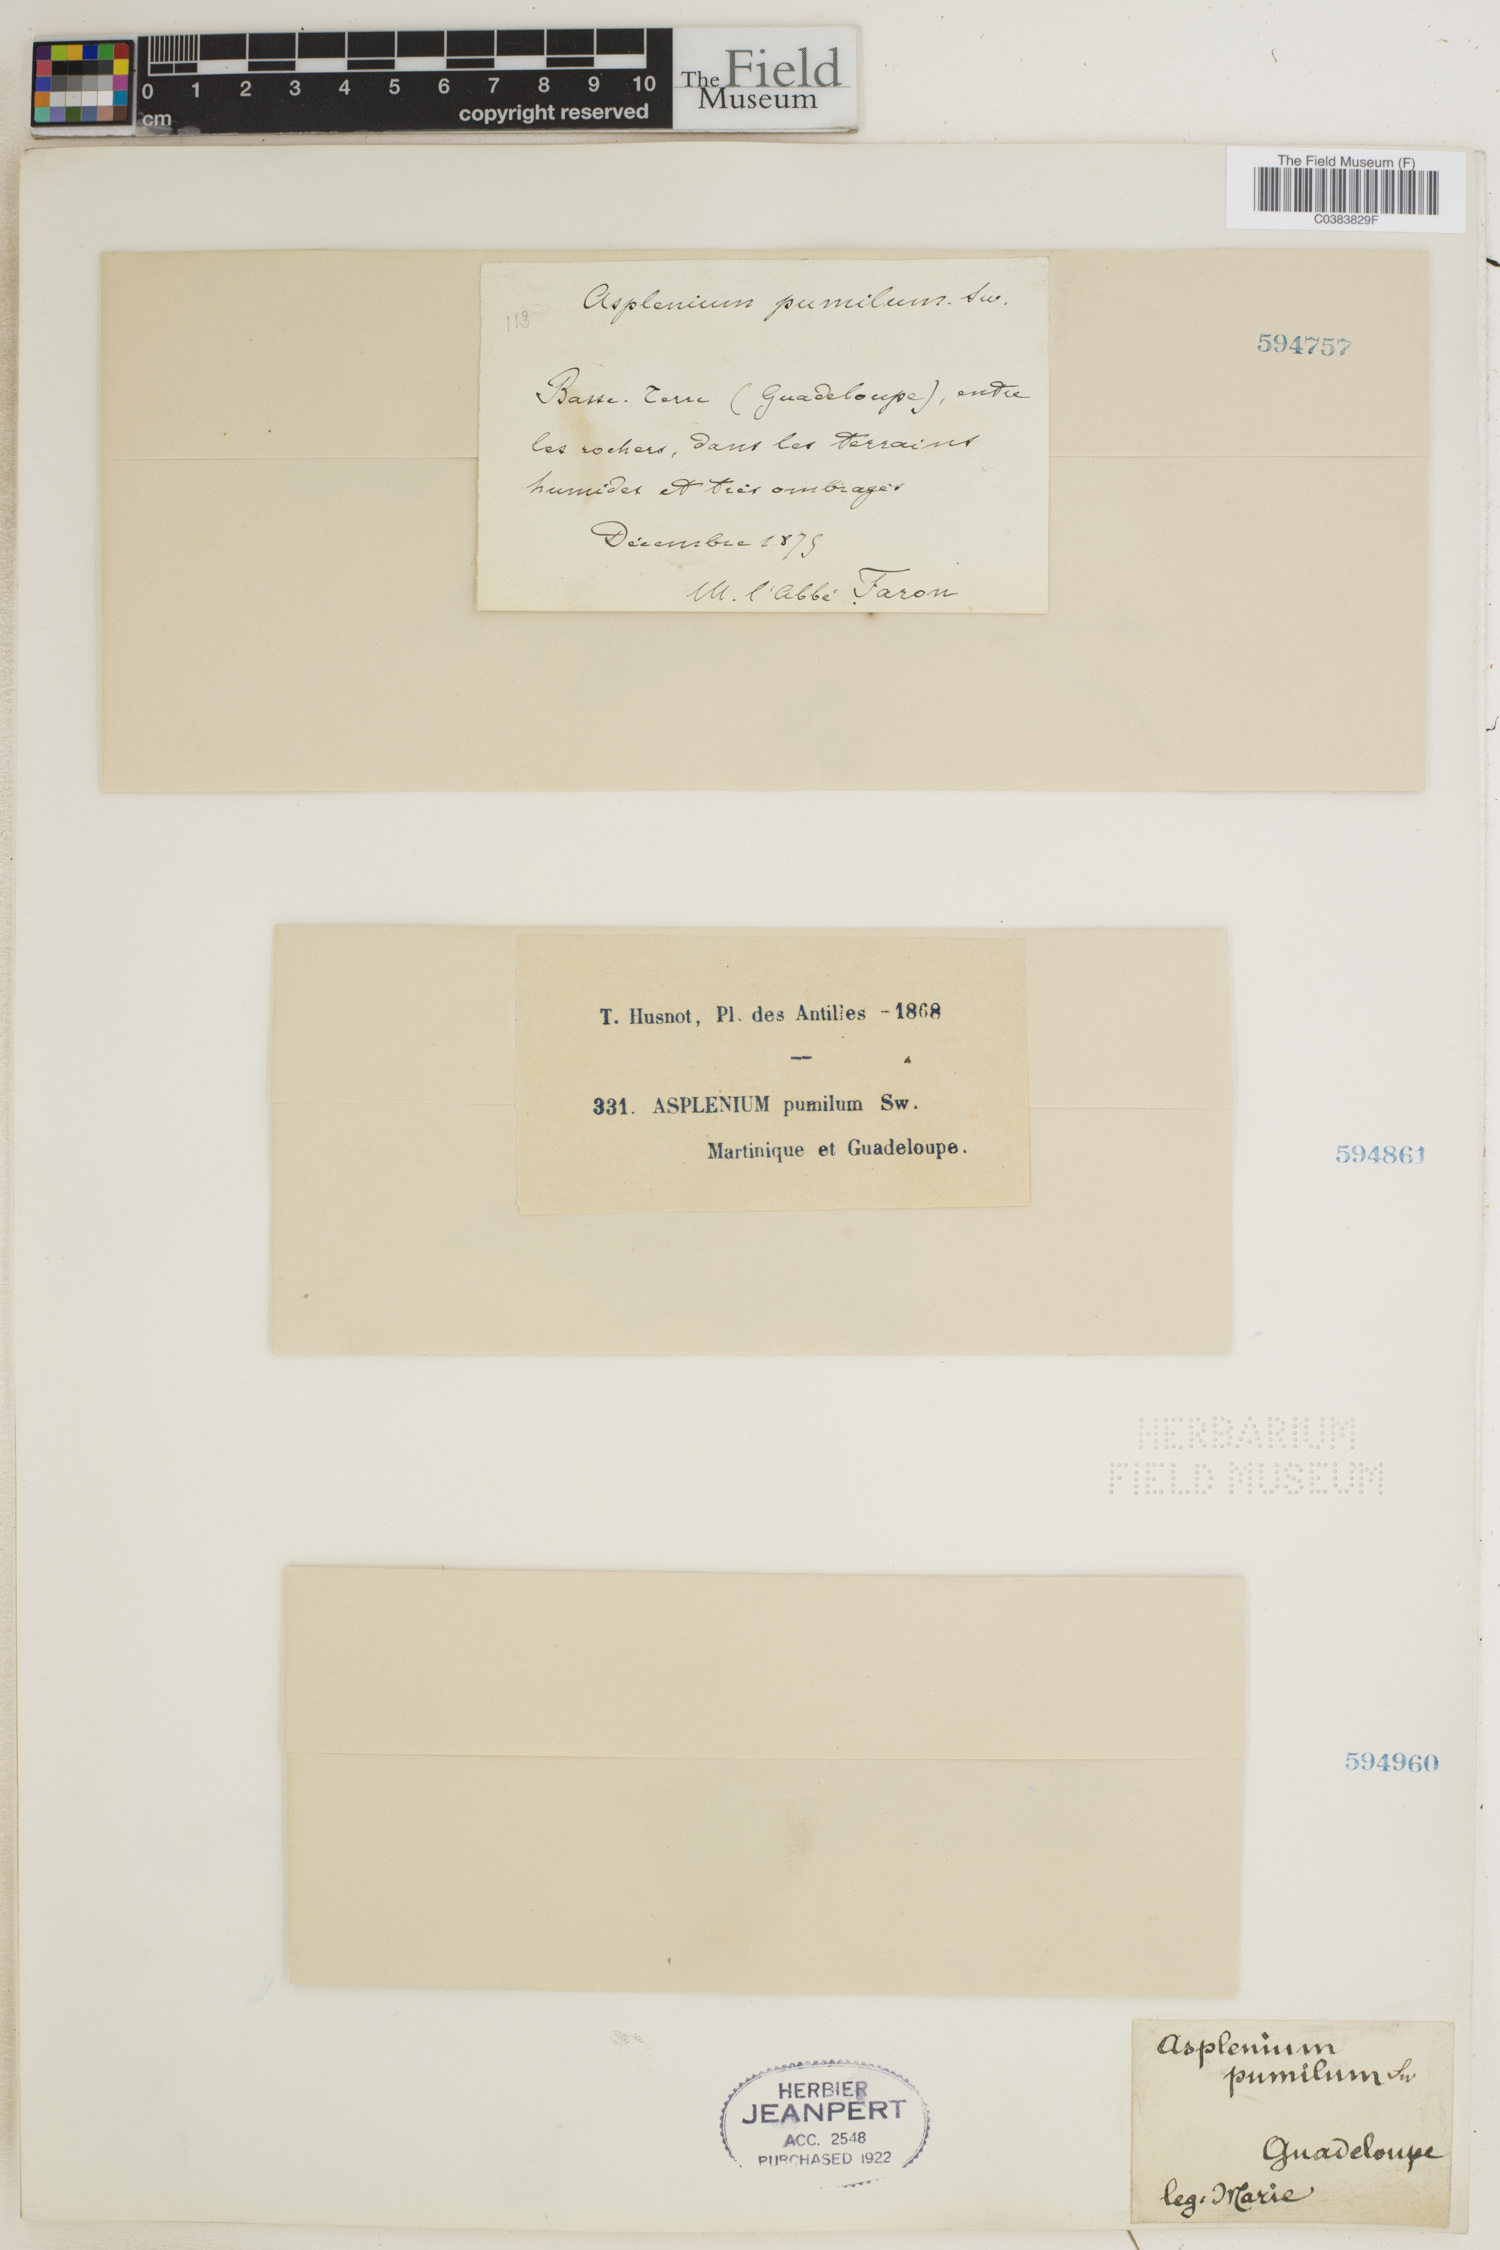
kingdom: Plantae
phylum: Tracheophyta
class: Polypodiopsida
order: Polypodiales
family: Aspleniaceae
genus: Asplenium
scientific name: Asplenium pumilum
